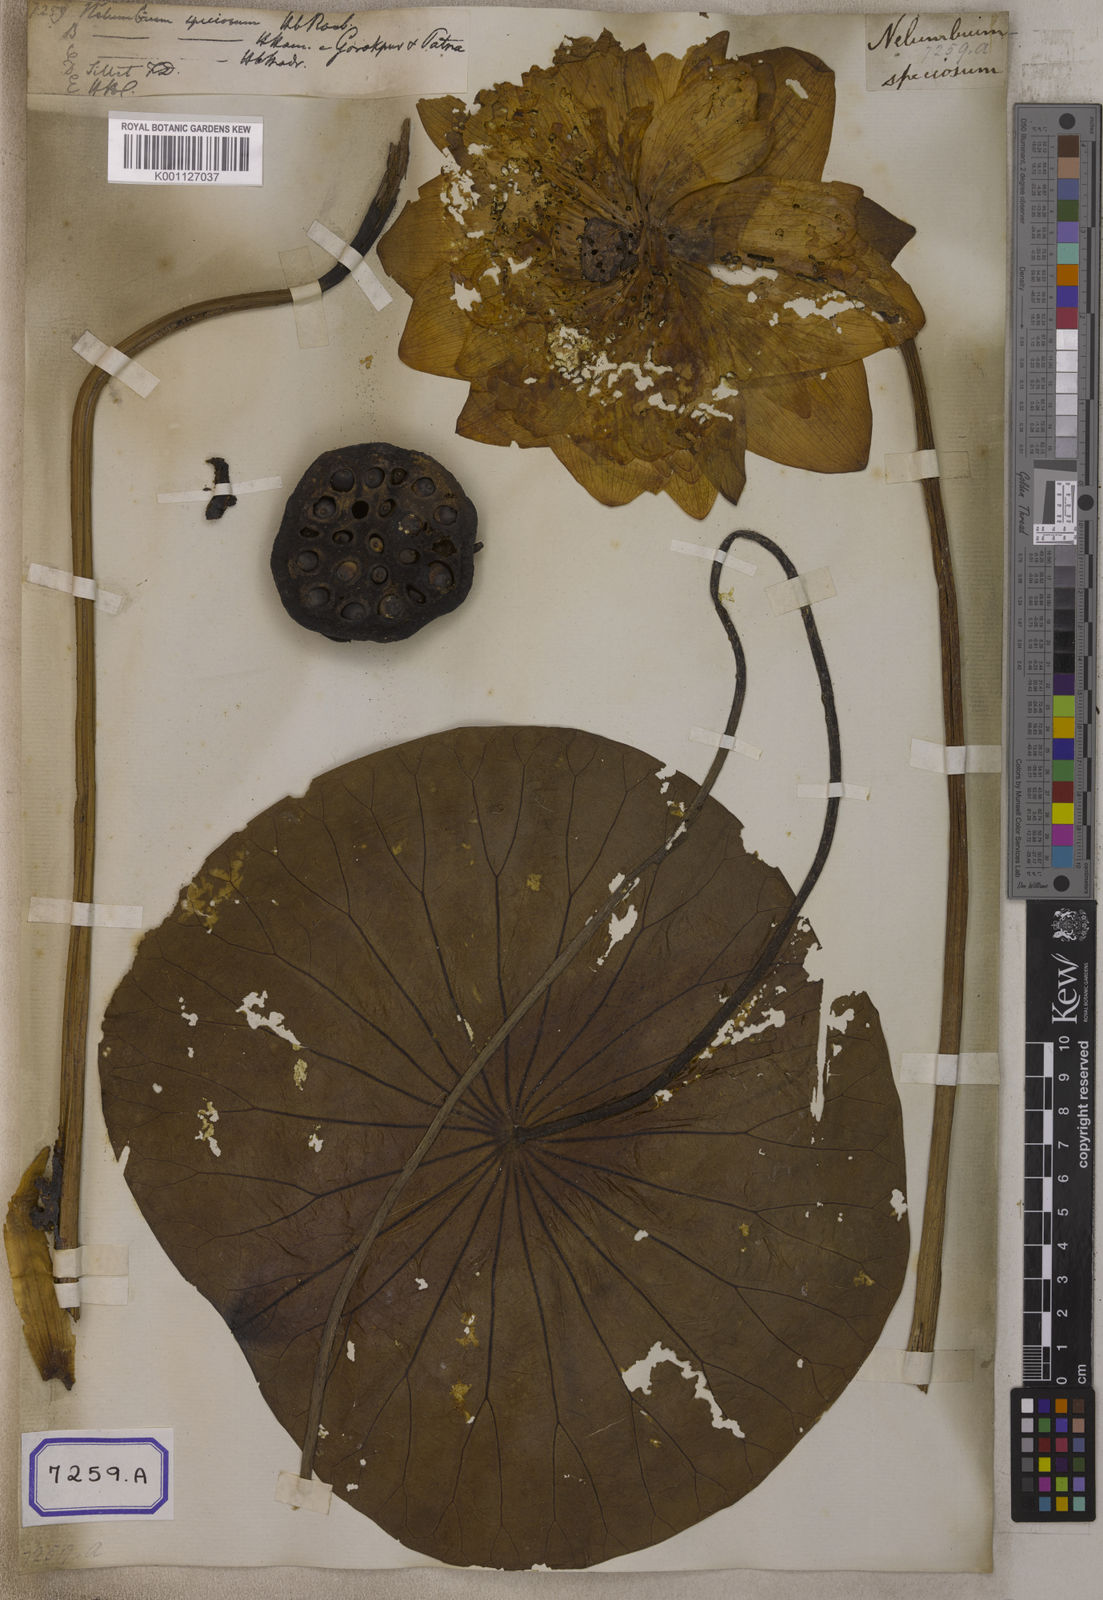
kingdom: Plantae
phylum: Tracheophyta
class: Magnoliopsida
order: Proteales
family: Nelumbonaceae
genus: Nelumbo
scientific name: Nelumbo nucifera
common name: Sacred lotus
